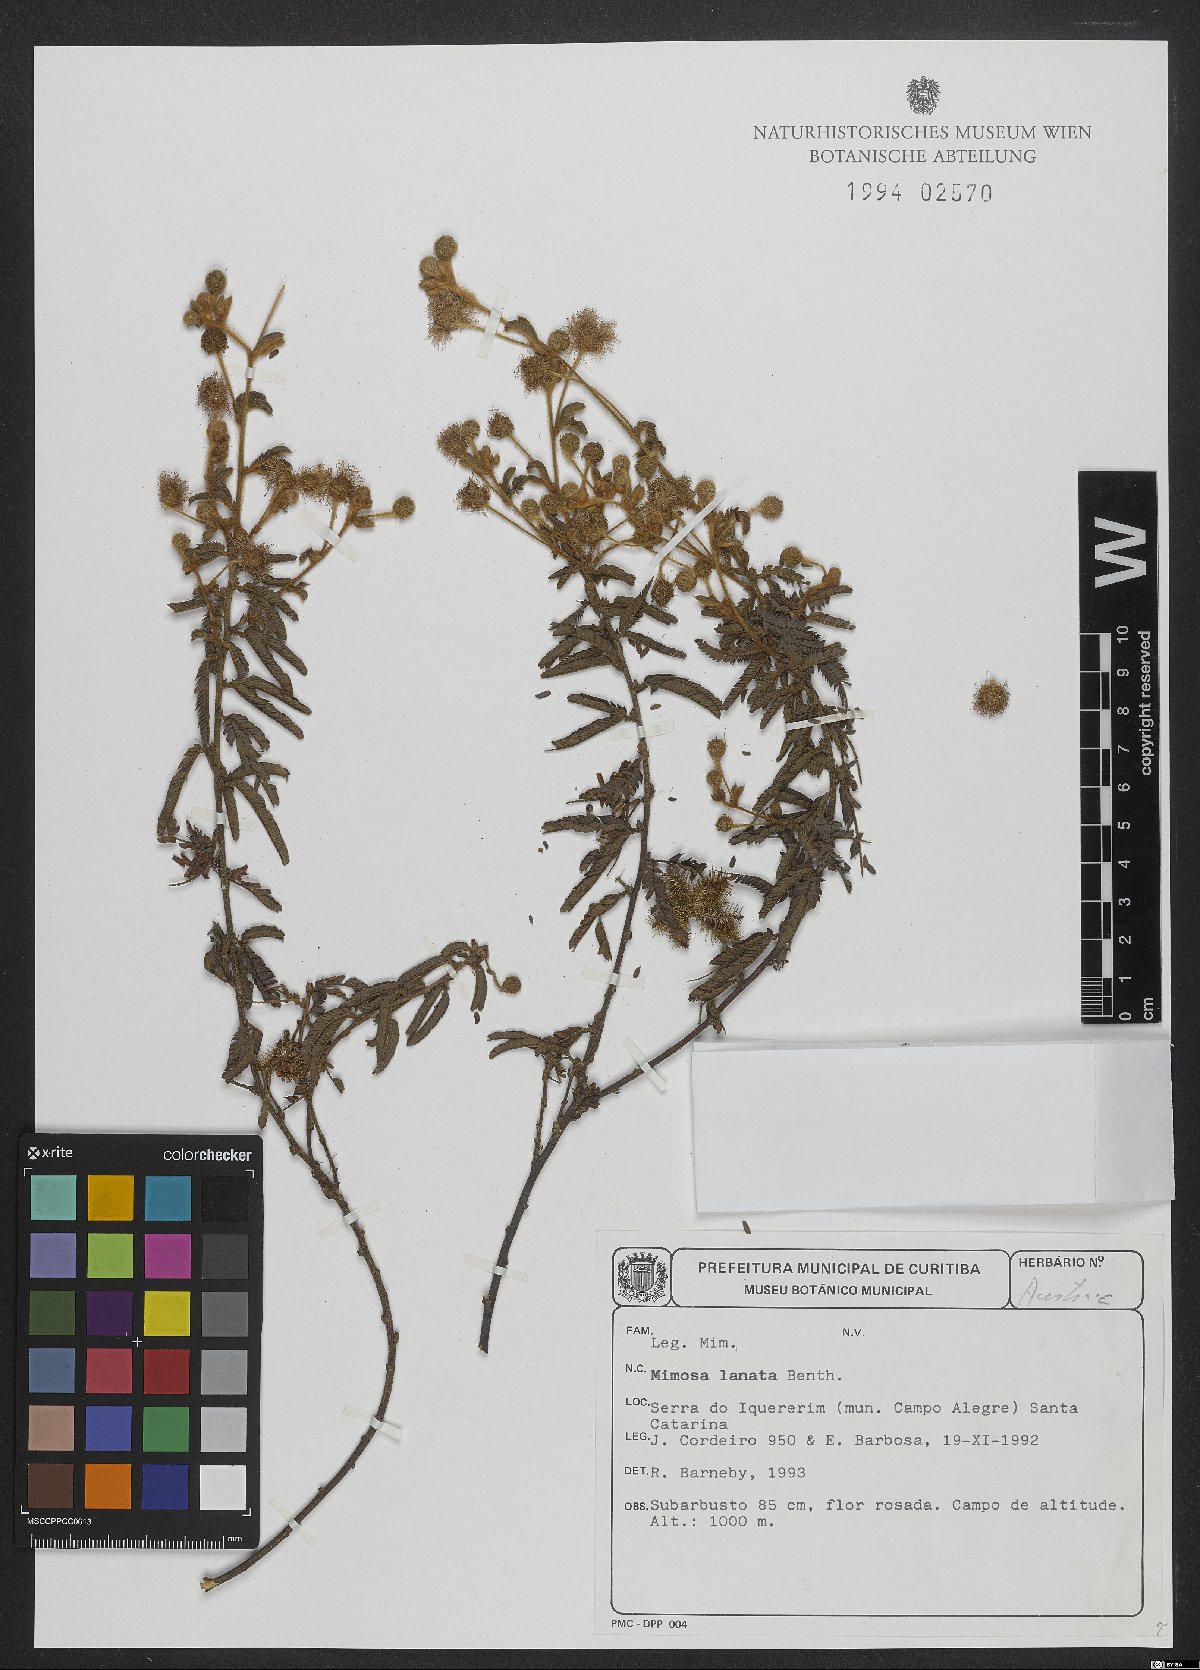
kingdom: Plantae
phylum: Tracheophyta
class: Magnoliopsida
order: Fabales
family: Fabaceae
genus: Mimosa
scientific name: Mimosa lanata
